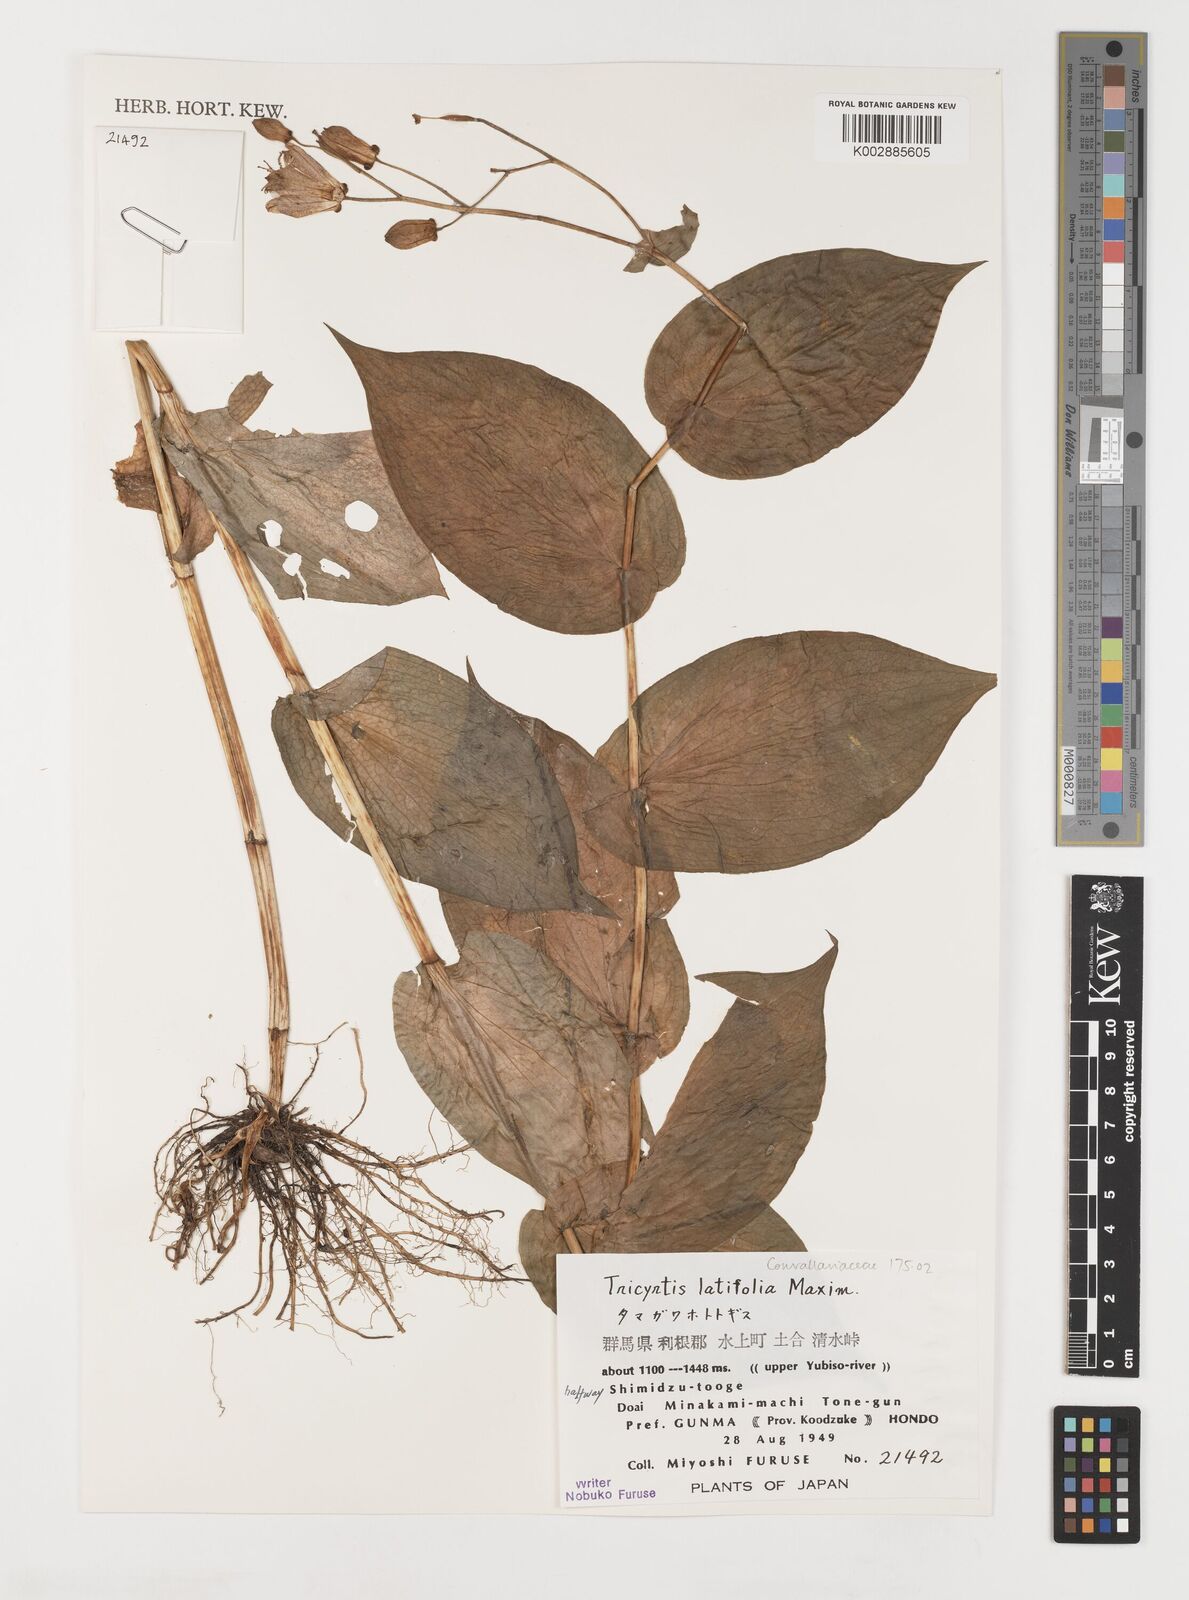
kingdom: Plantae
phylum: Tracheophyta
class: Liliopsida
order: Liliales
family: Liliaceae
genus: Tricyrtis
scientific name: Tricyrtis latifolia
